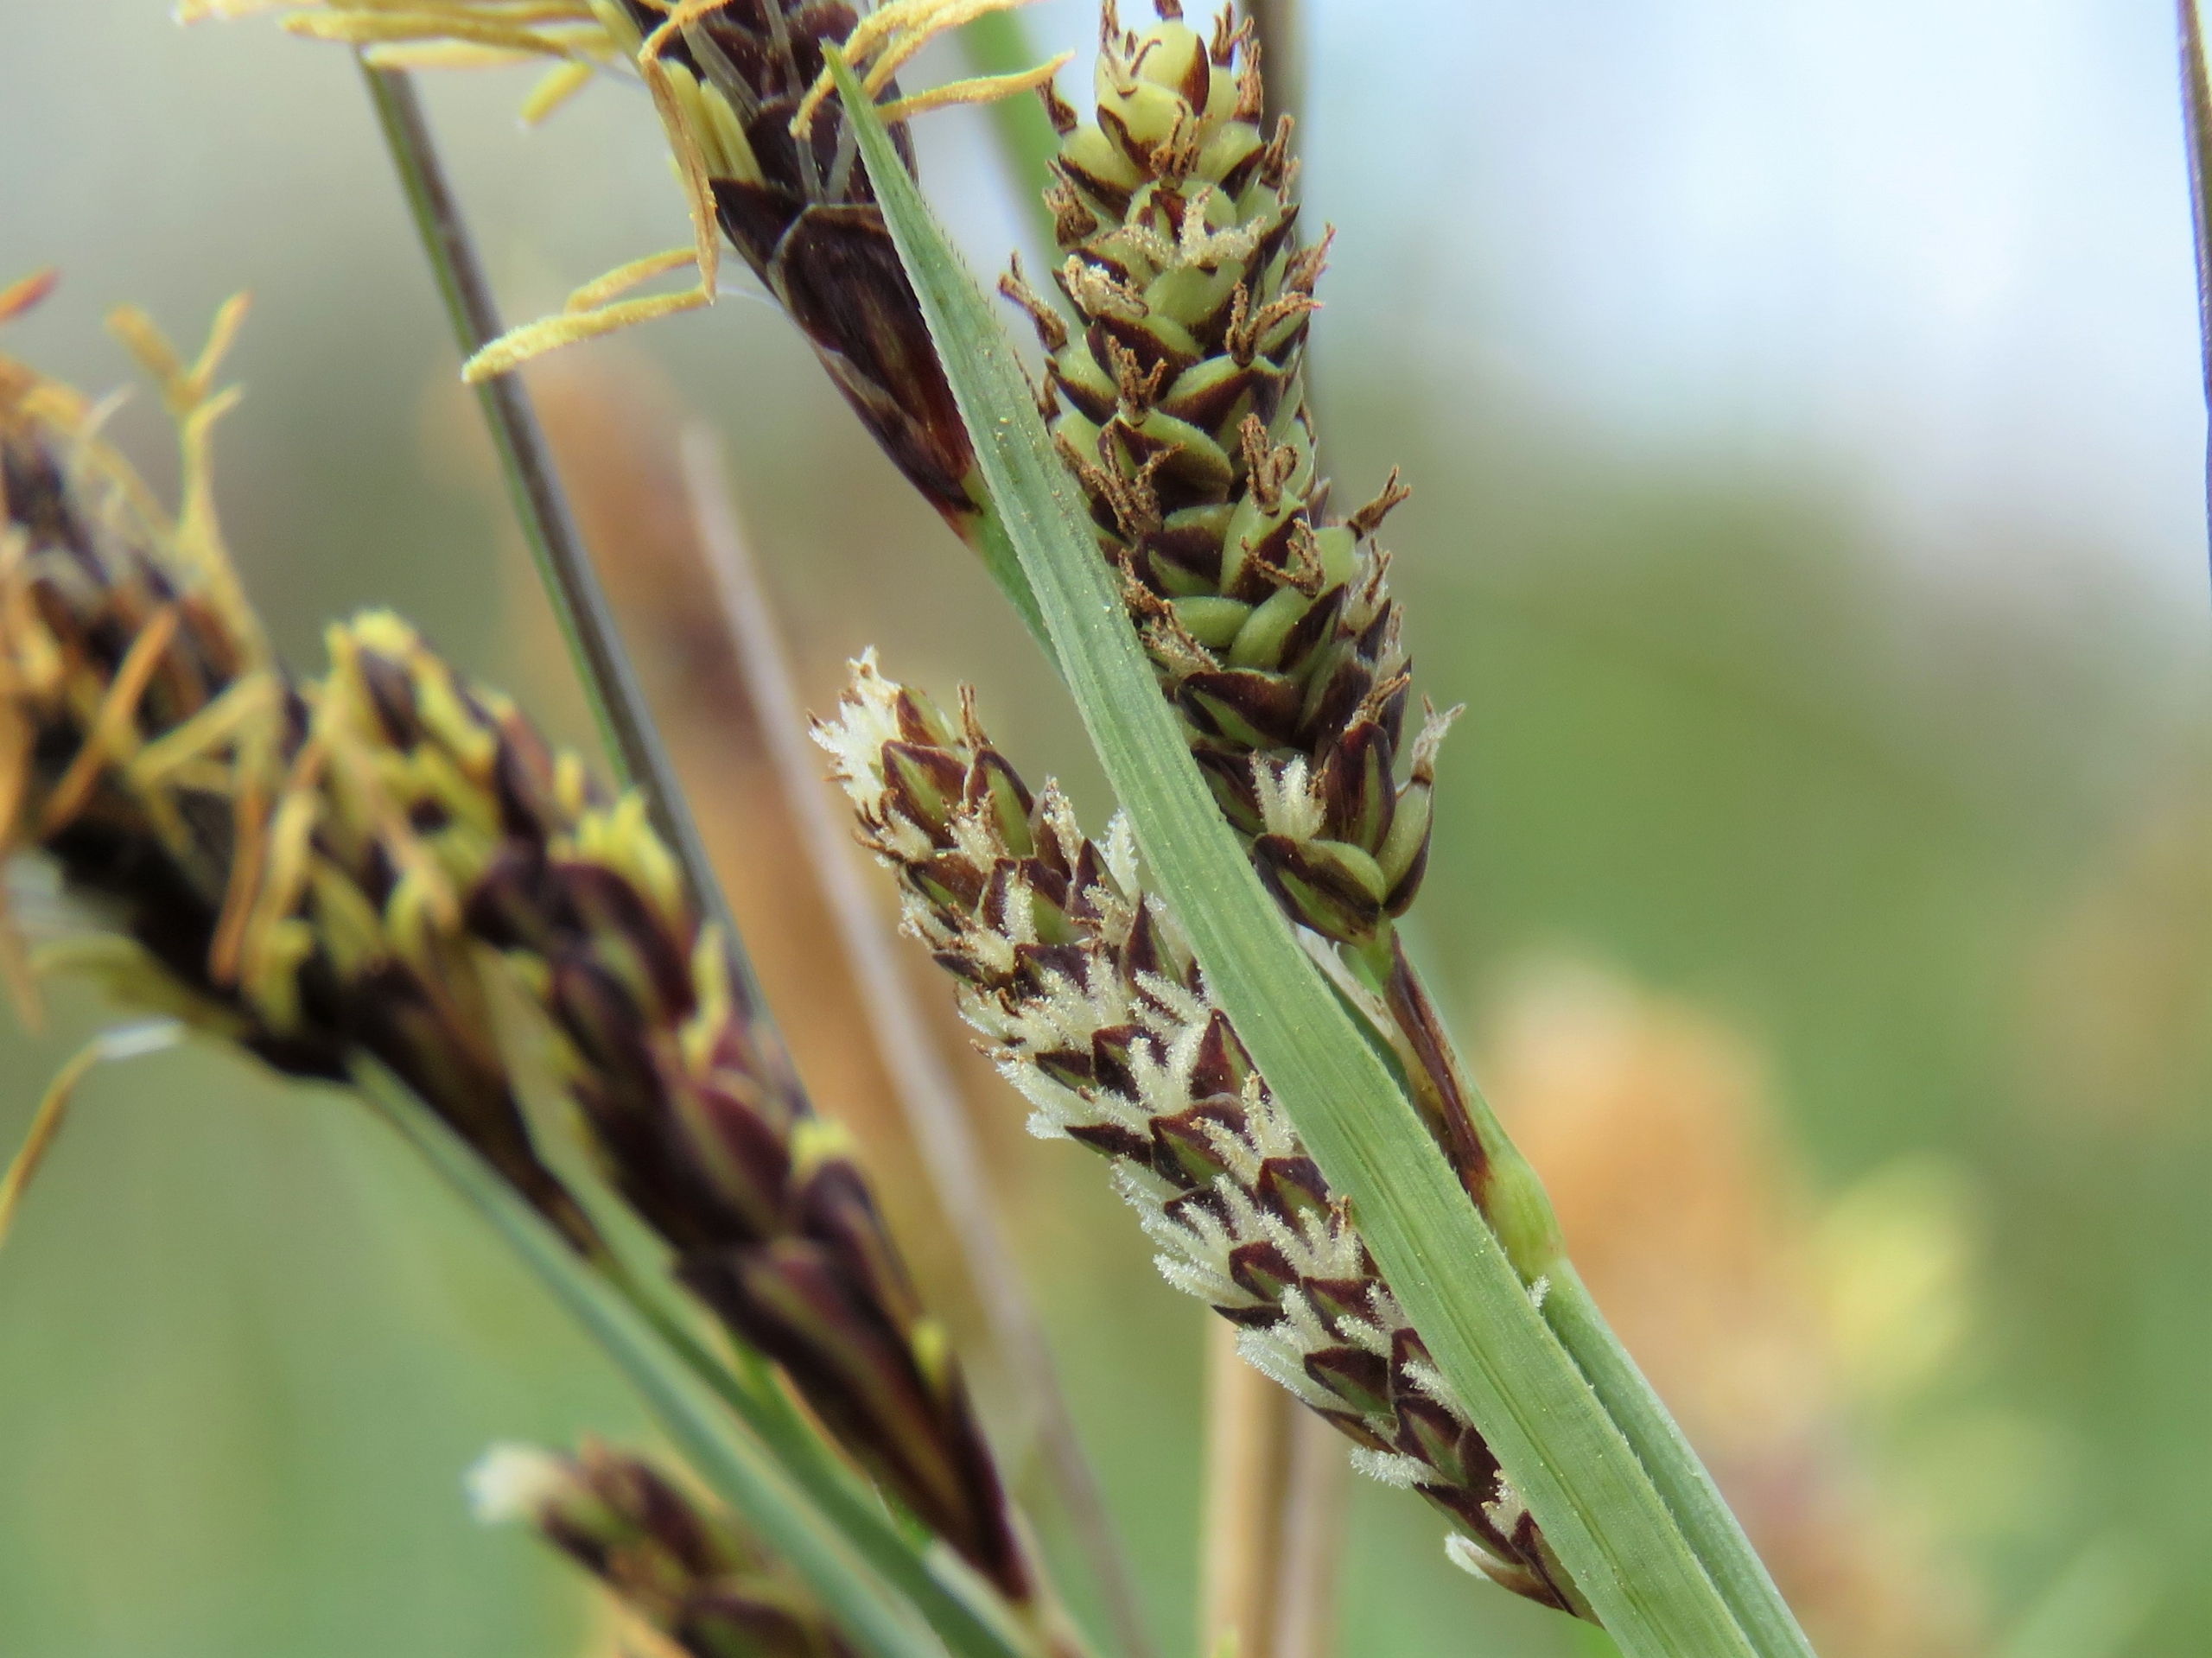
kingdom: Plantae
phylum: Tracheophyta
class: Liliopsida
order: Poales
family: Cyperaceae
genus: Carex
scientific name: Carex flacca
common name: Blågrøn star
